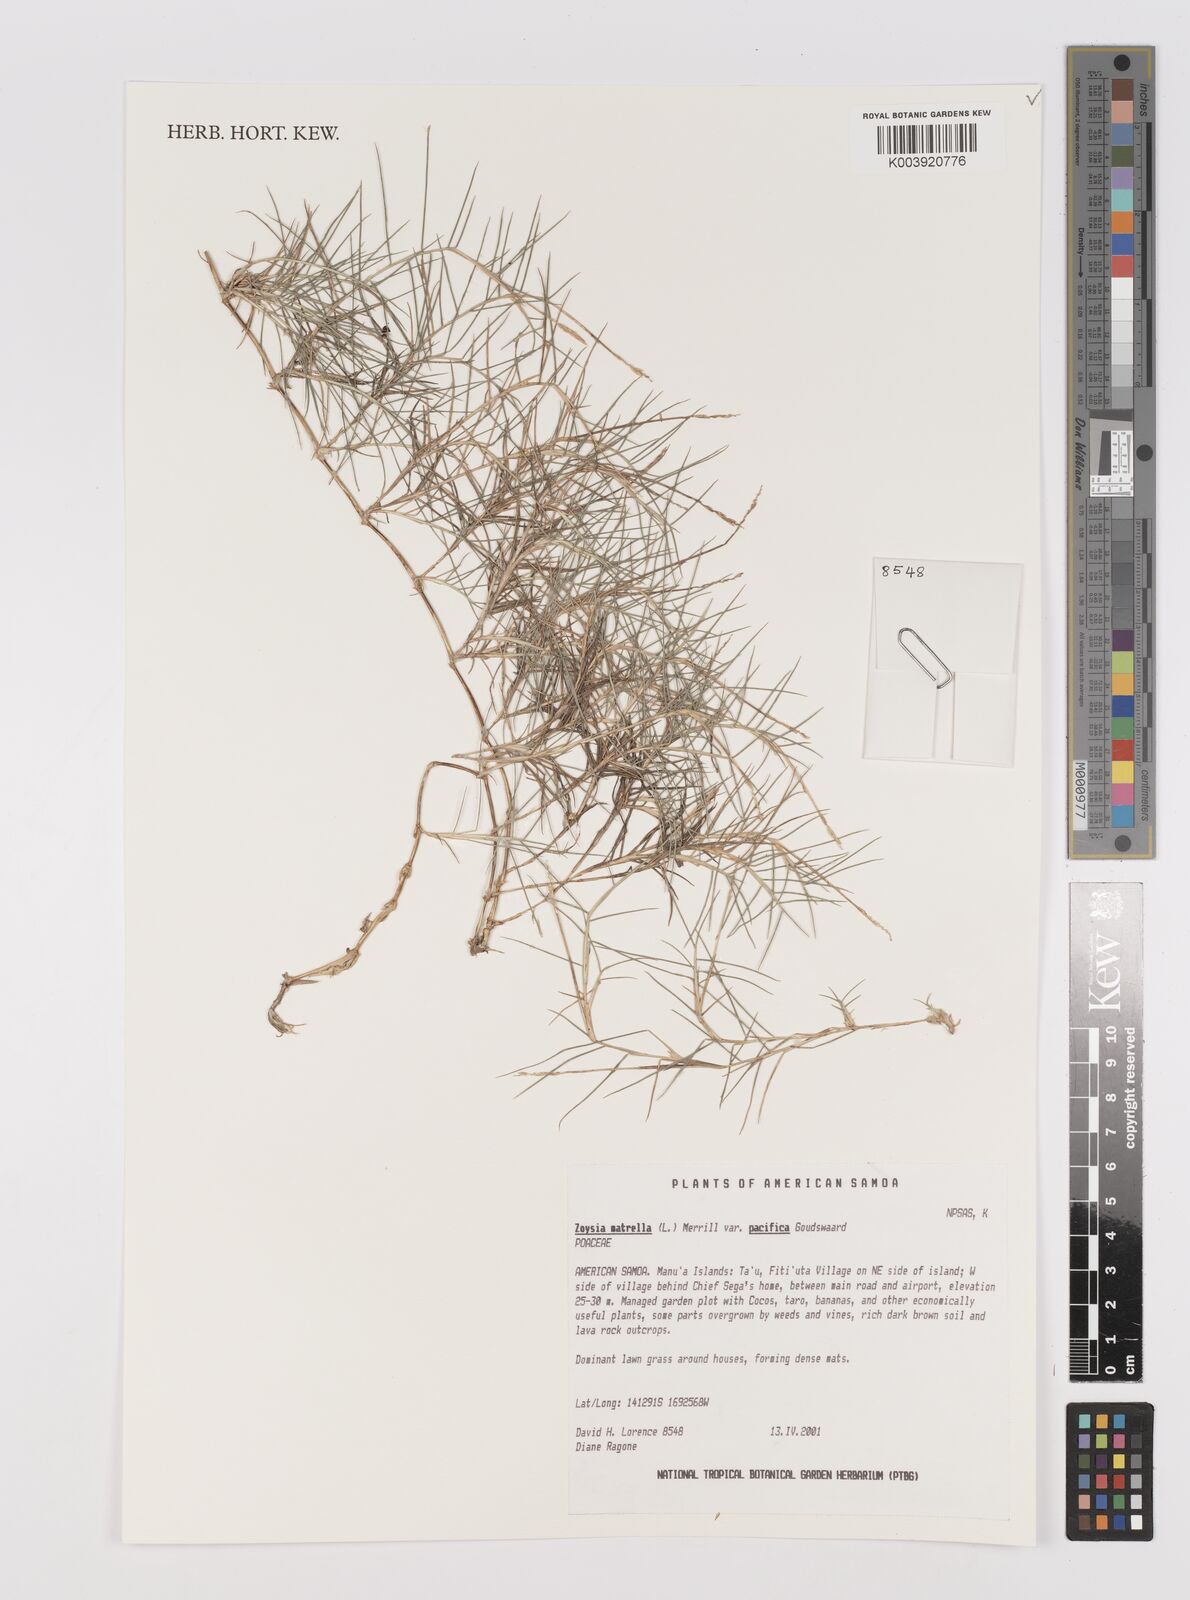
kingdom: Plantae
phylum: Tracheophyta
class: Liliopsida
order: Poales
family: Poaceae
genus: Zoysia
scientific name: Zoysia matrella
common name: Manila grass
